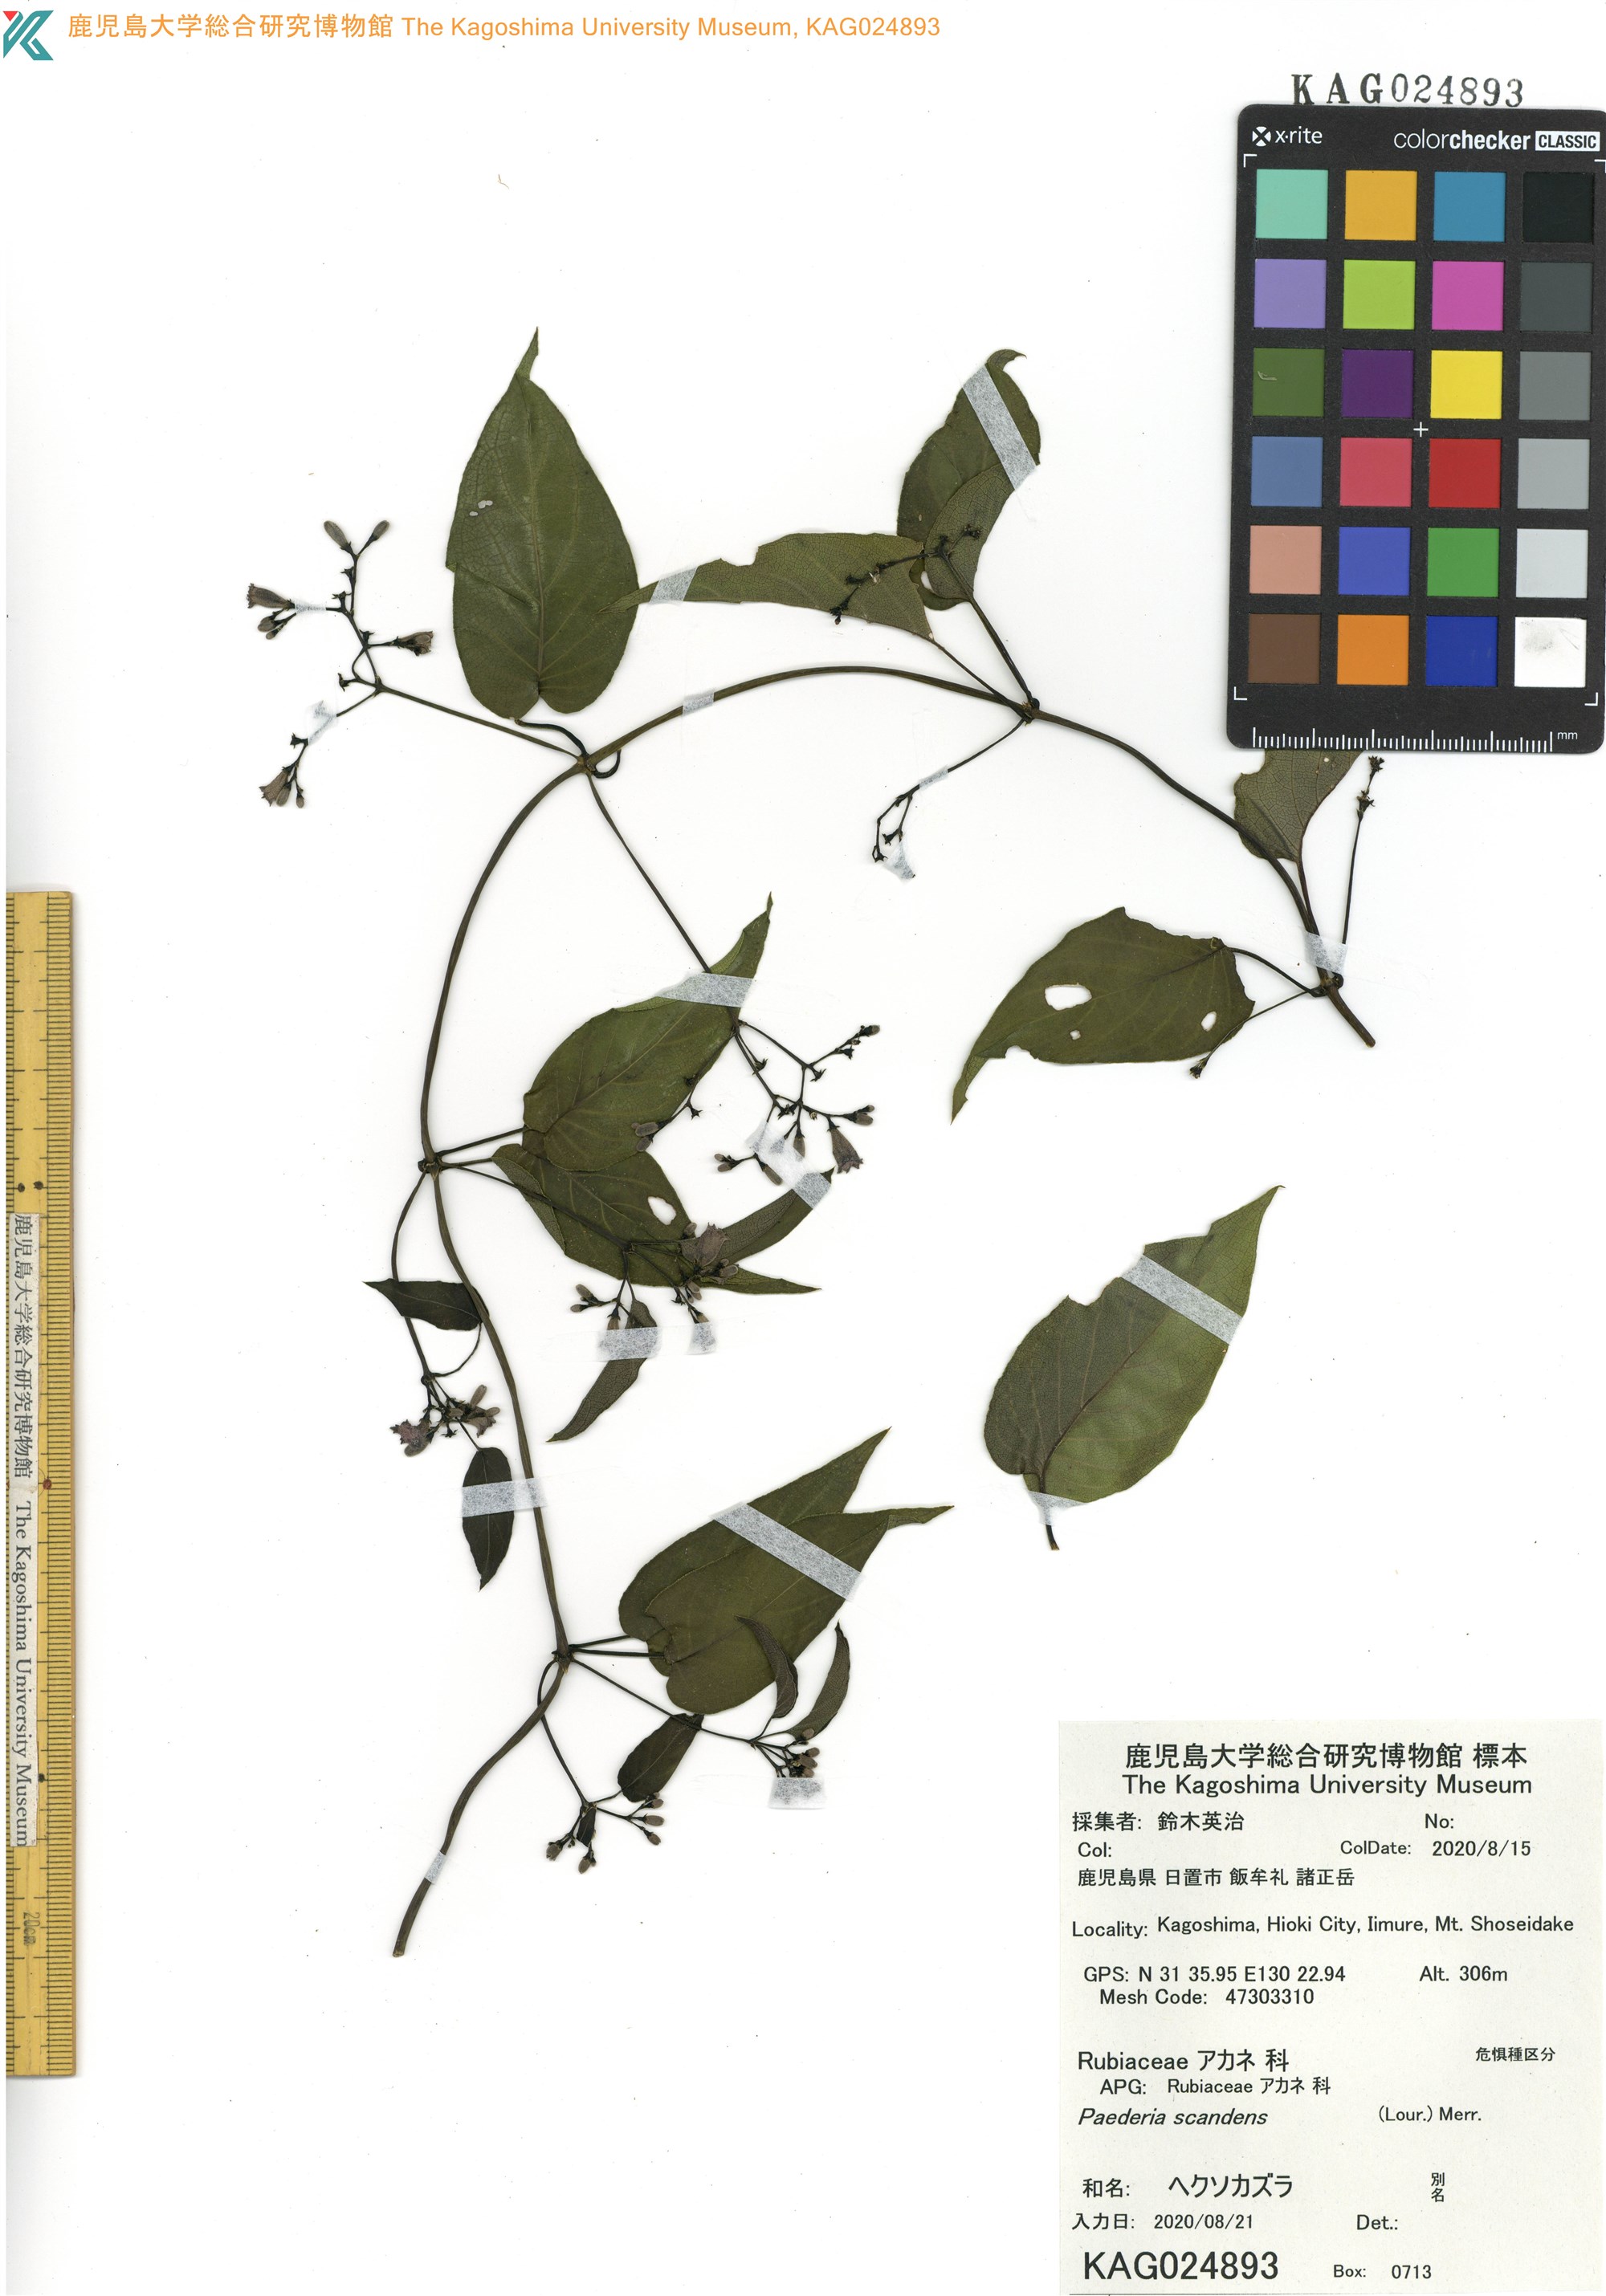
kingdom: Plantae
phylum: Tracheophyta
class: Magnoliopsida
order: Gentianales
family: Rubiaceae
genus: Paederia
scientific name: Paederia foetida
